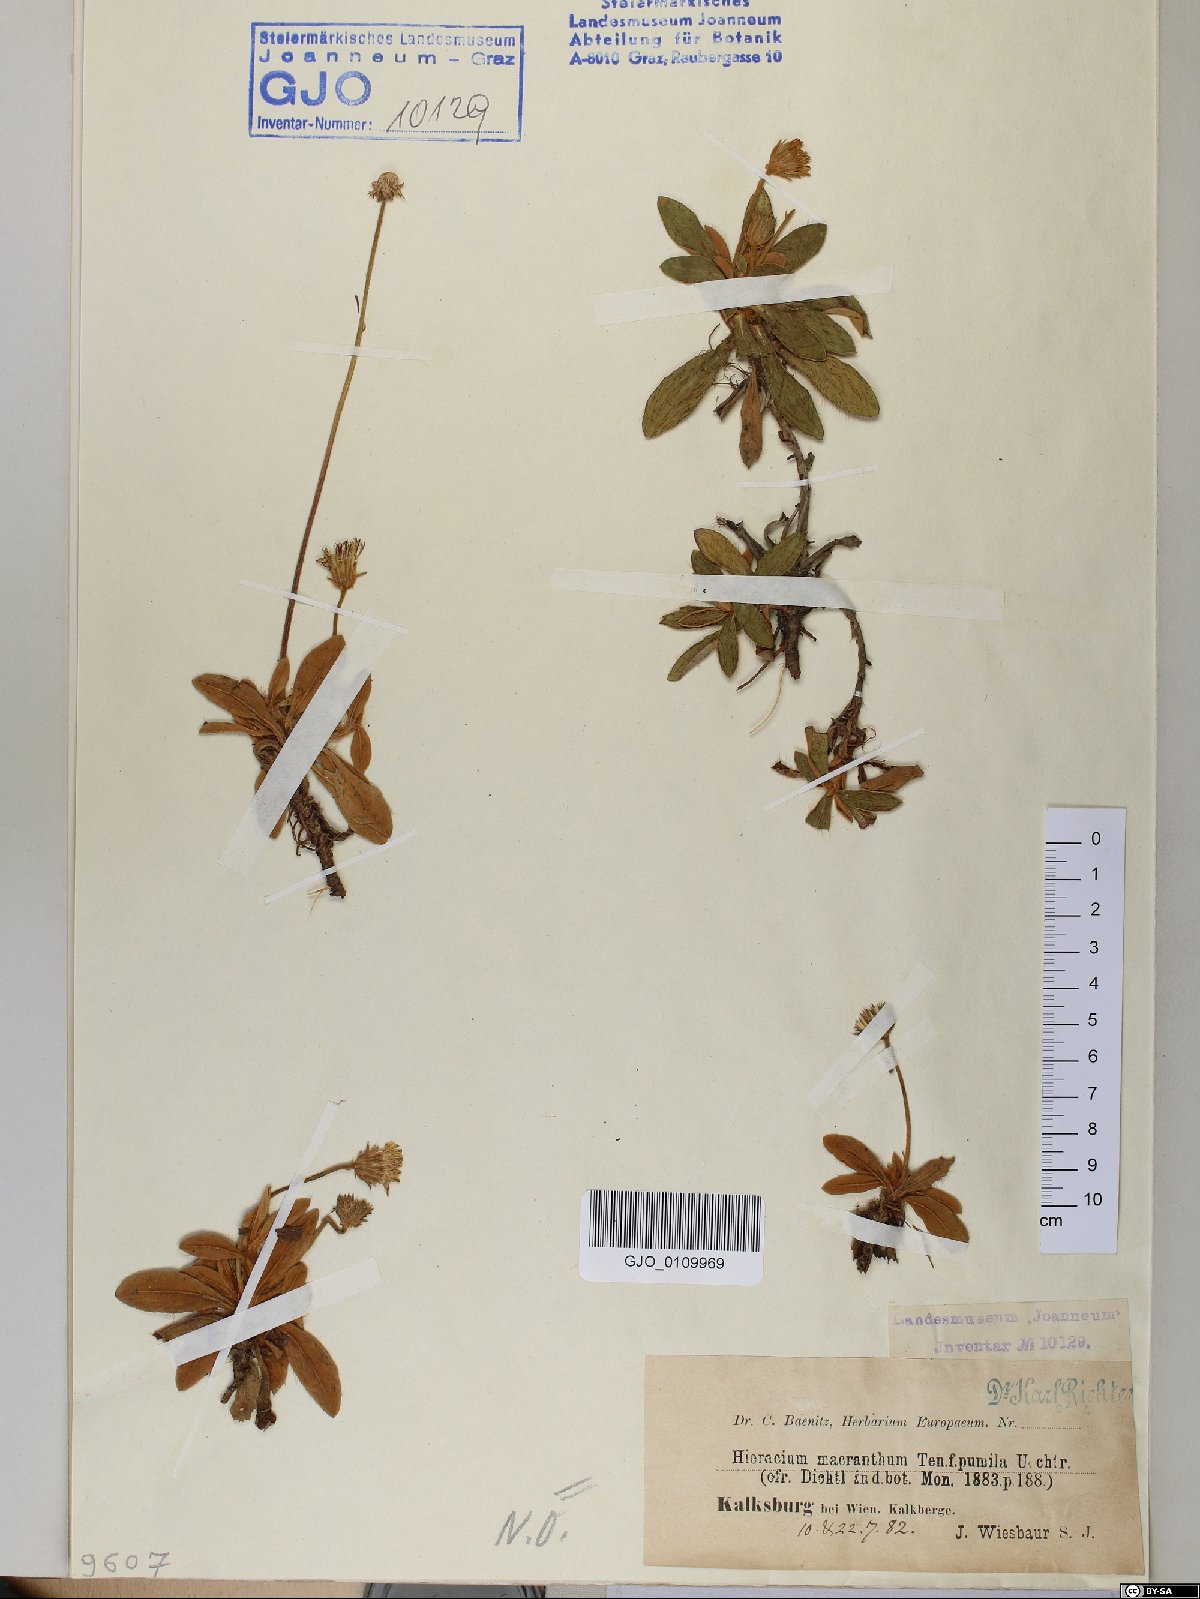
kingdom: Plantae
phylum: Tracheophyta
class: Magnoliopsida
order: Asterales
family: Asteraceae
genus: Pilosella
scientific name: Pilosella hoppeana
